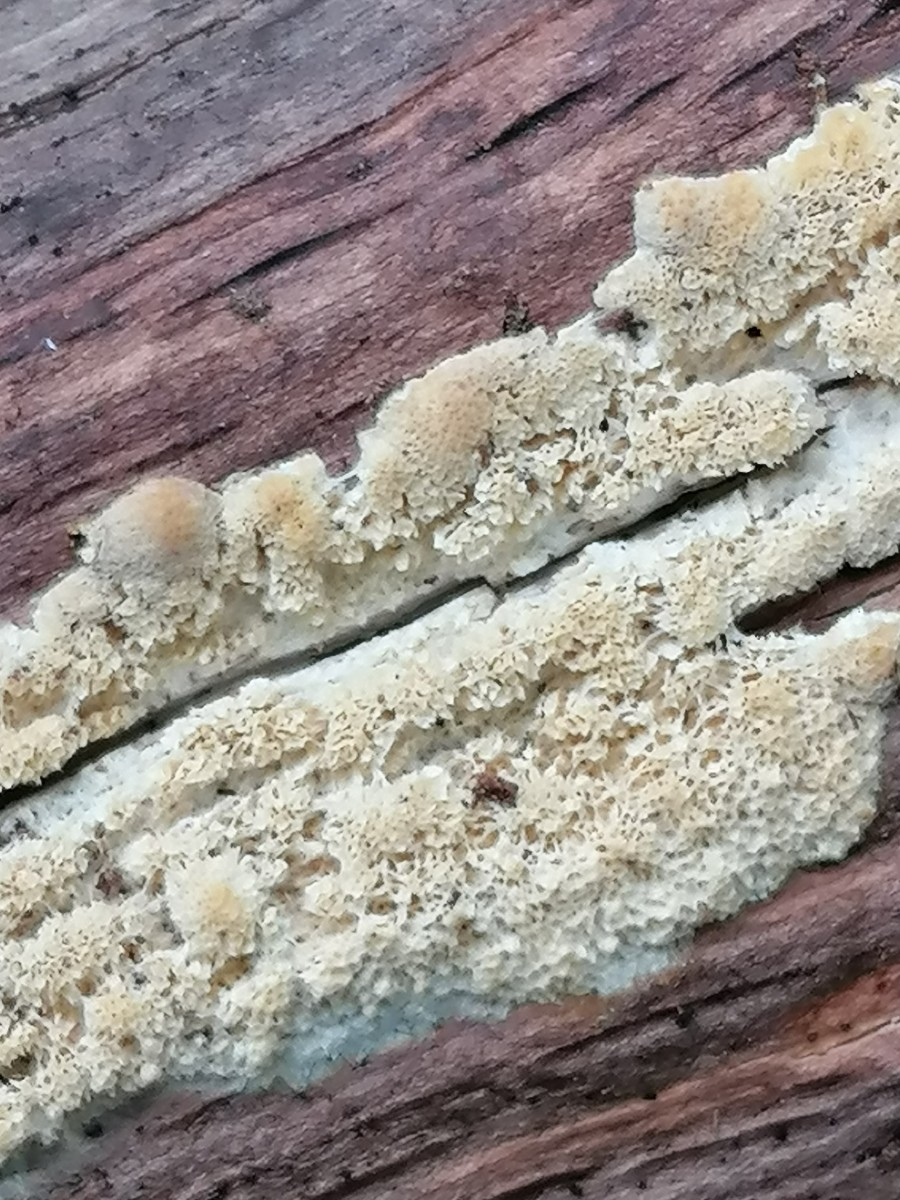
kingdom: Fungi
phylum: Basidiomycota
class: Agaricomycetes
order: Hymenochaetales
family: Schizoporaceae
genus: Xylodon
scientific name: Xylodon subtropicus
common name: labyrint-tandsvamp
